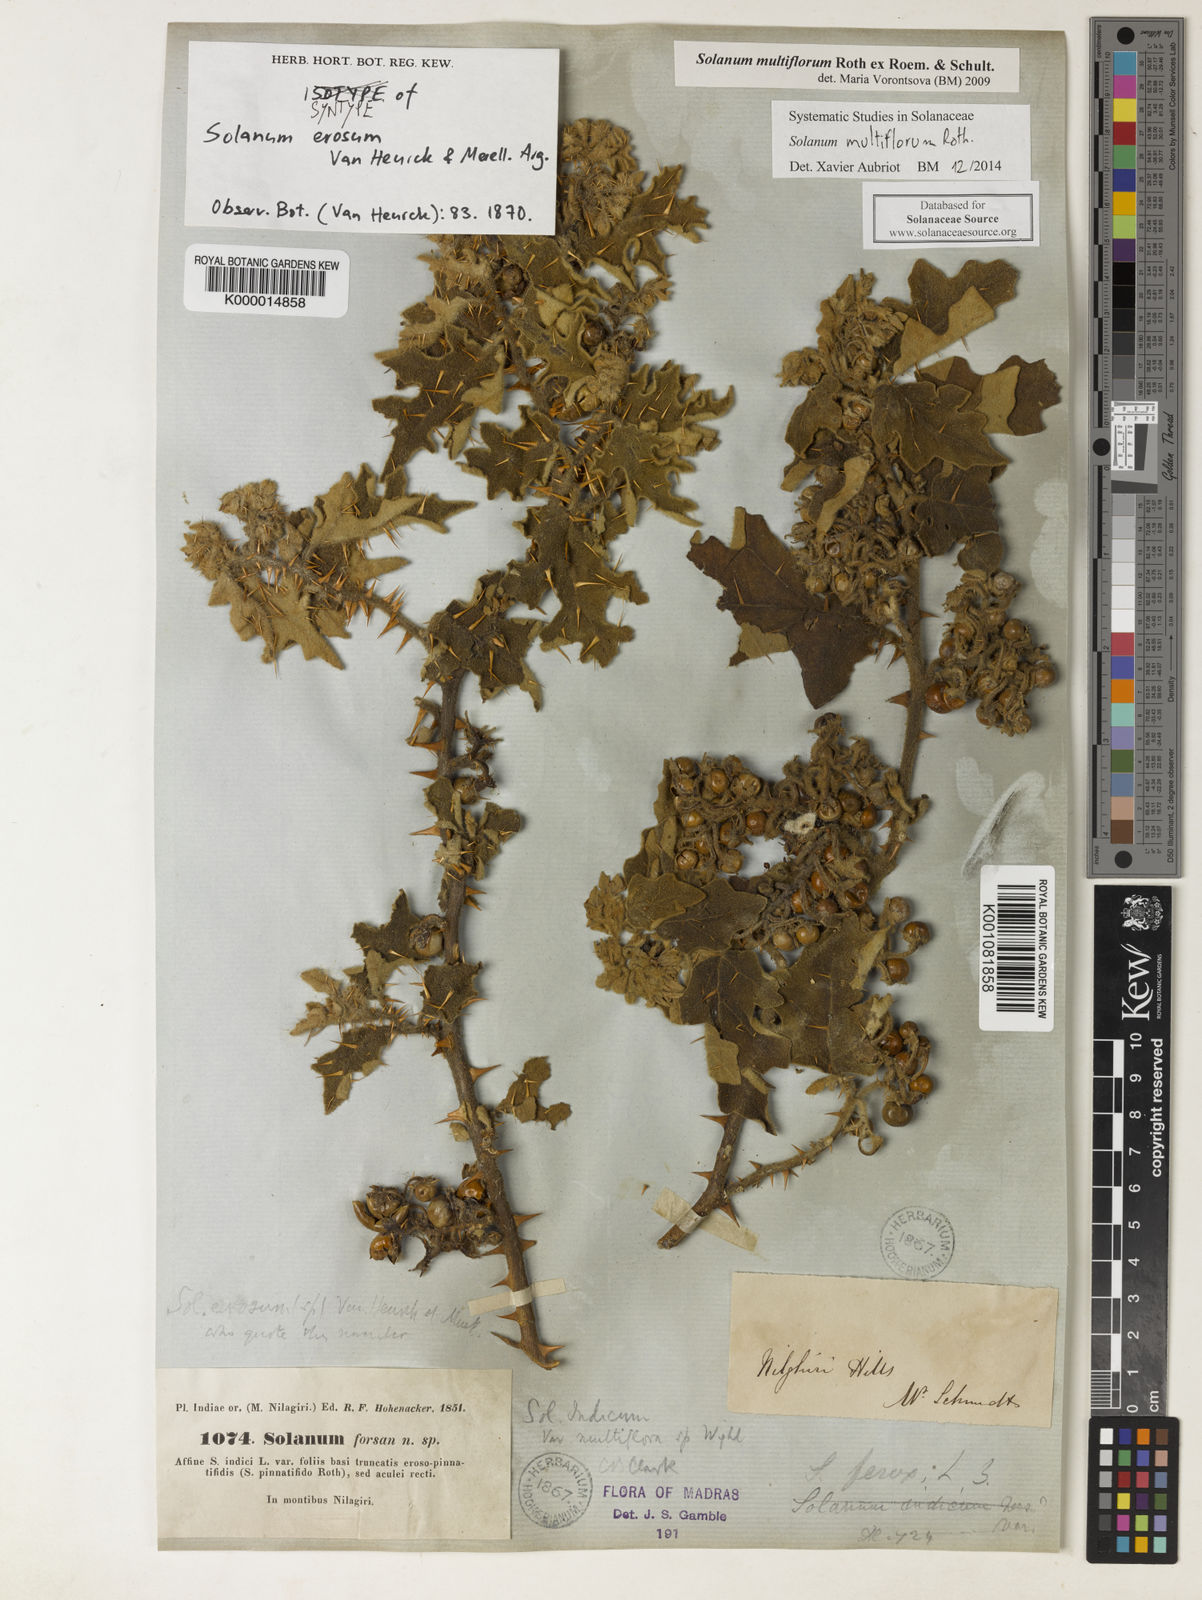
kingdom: Plantae
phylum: Tracheophyta
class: Magnoliopsida
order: Solanales
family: Solanaceae
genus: Solanum
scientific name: Solanum multiflorum
